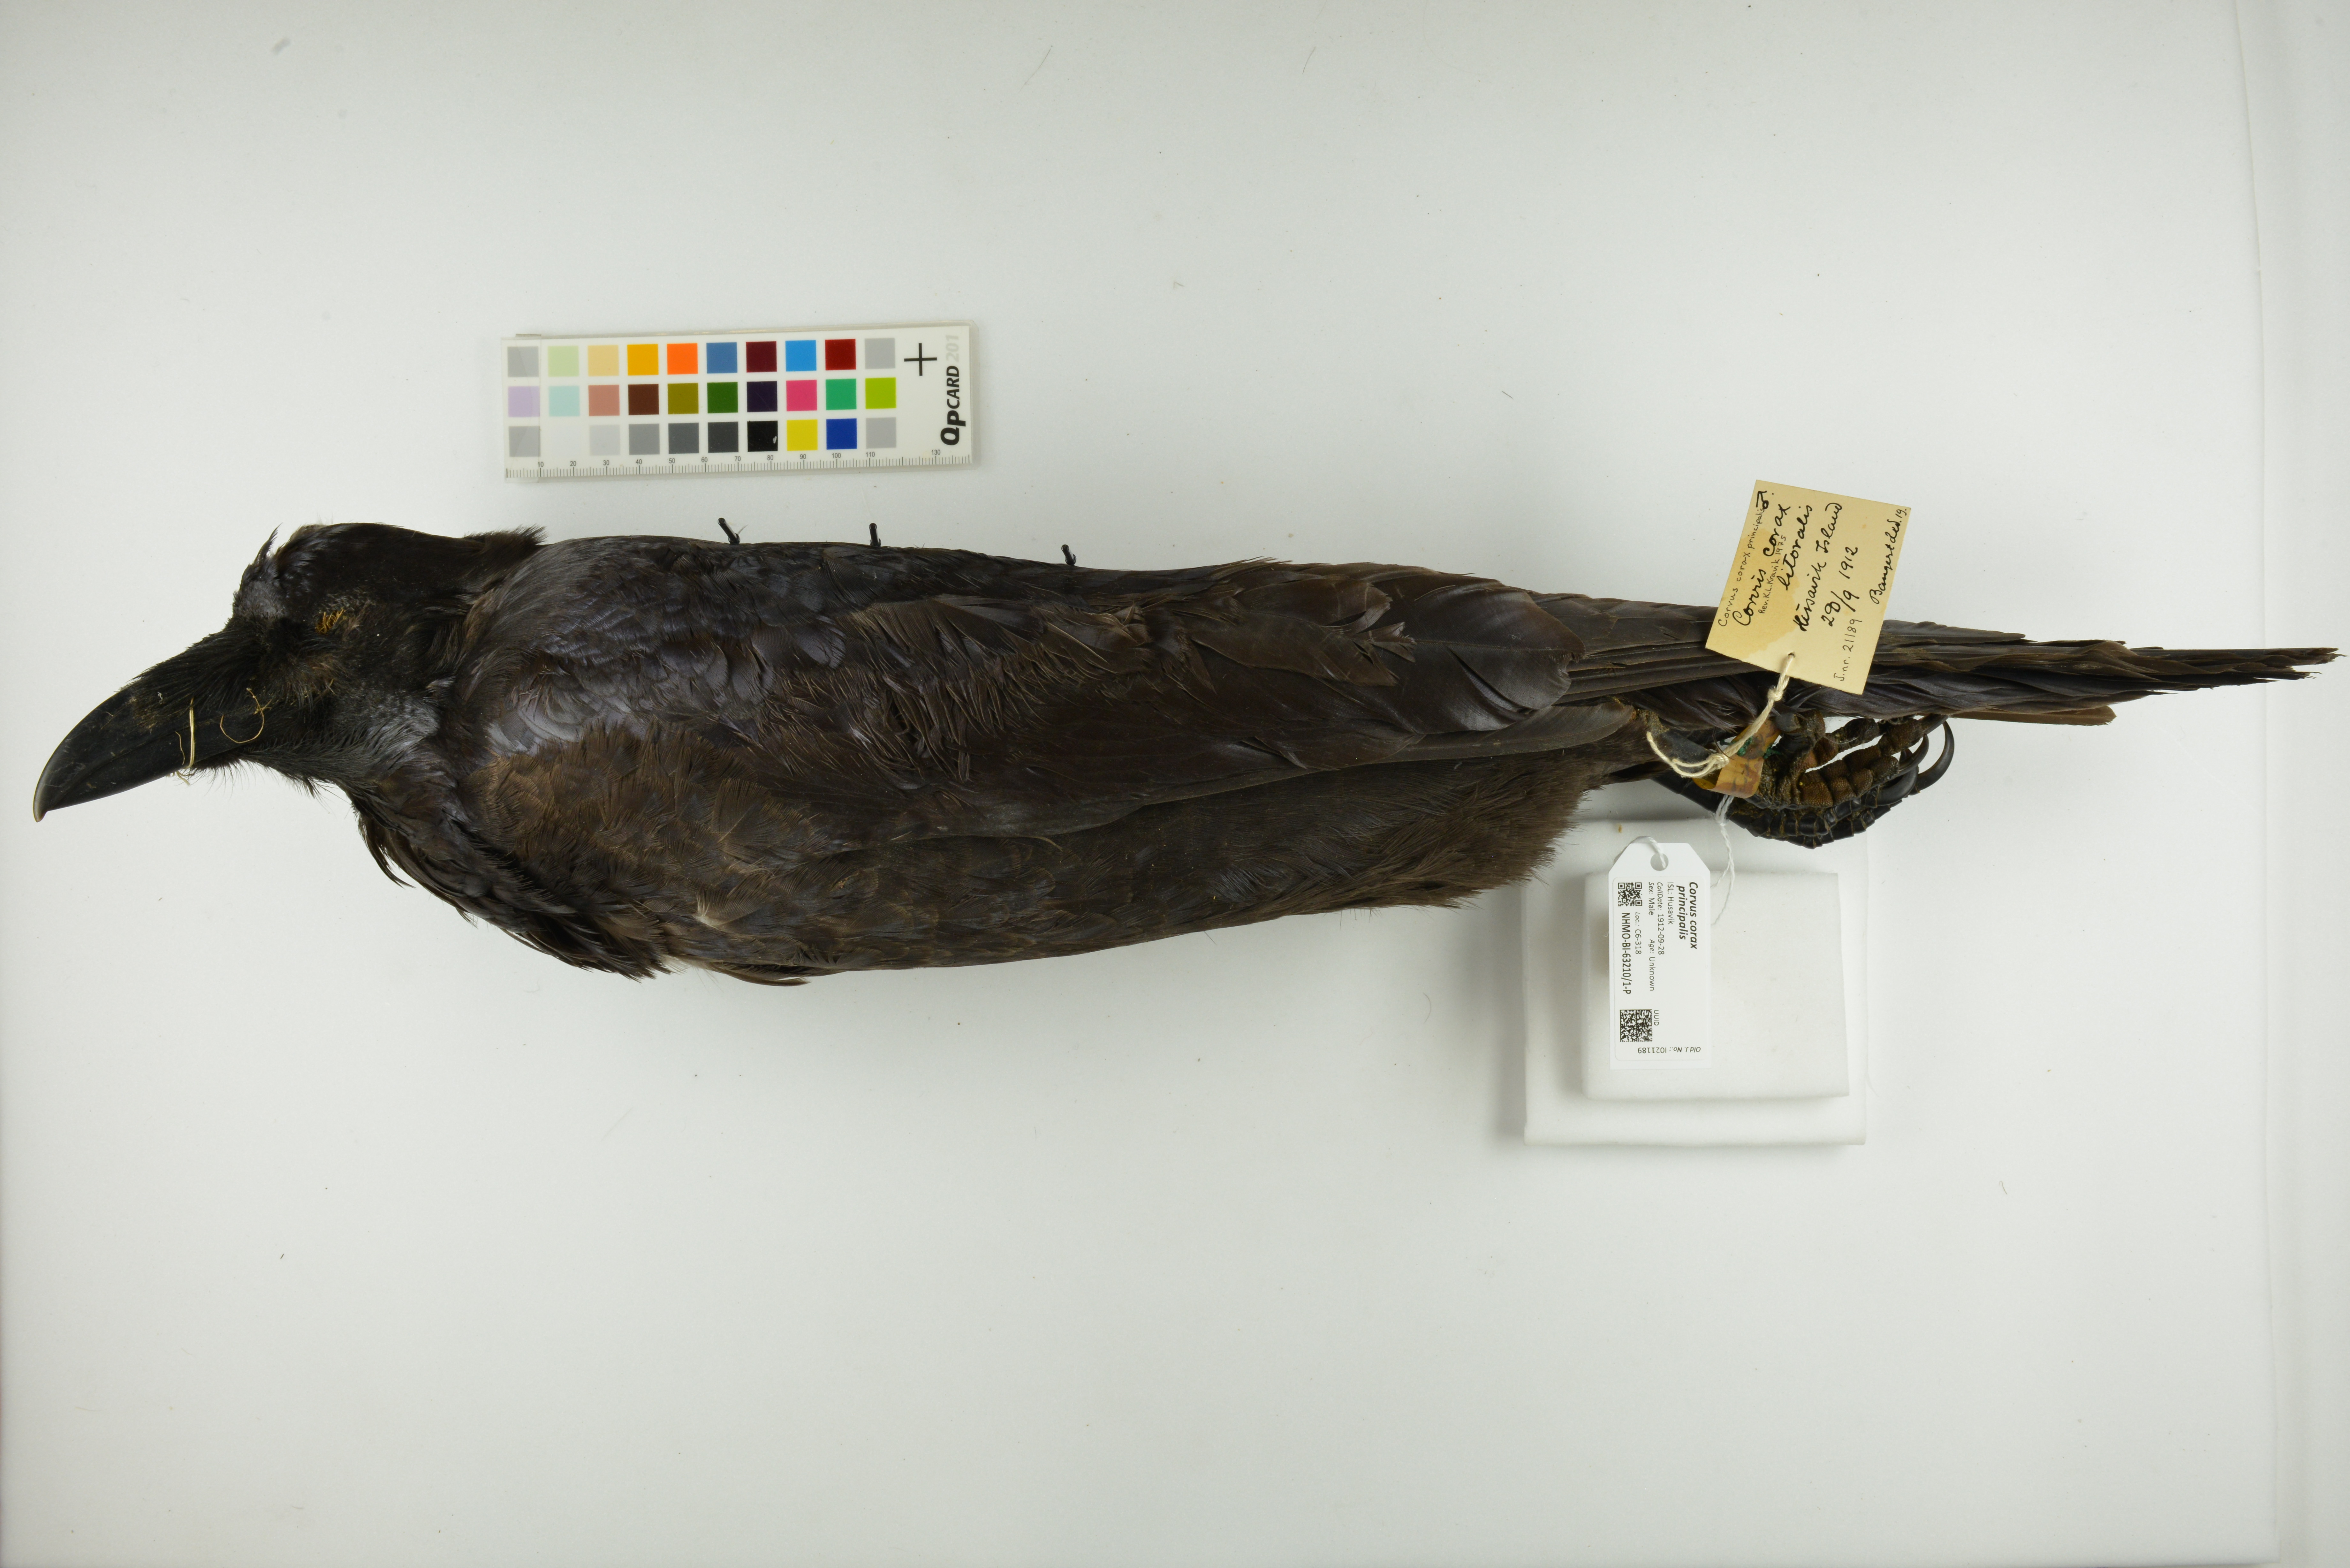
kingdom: Animalia
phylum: Chordata
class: Aves
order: Passeriformes
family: Corvidae
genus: Corvus
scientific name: Corvus corax
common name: Common raven
